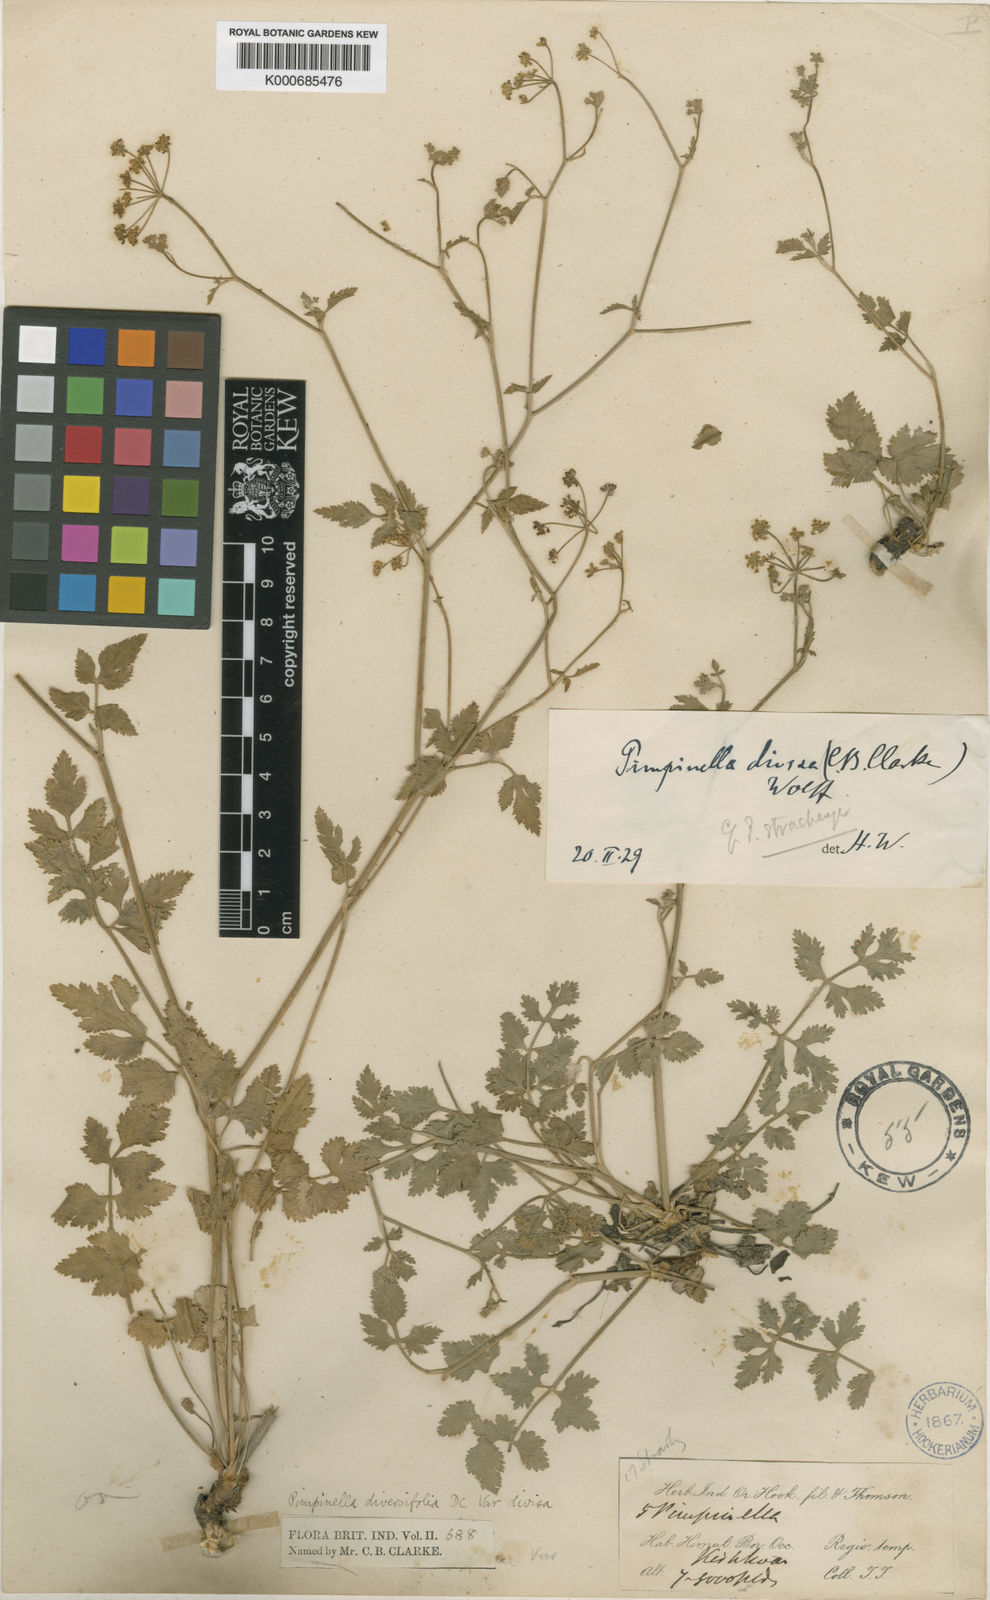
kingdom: Plantae
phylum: Tracheophyta
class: Magnoliopsida
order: Apiales
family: Apiaceae
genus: Pimpinella
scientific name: Pimpinella
